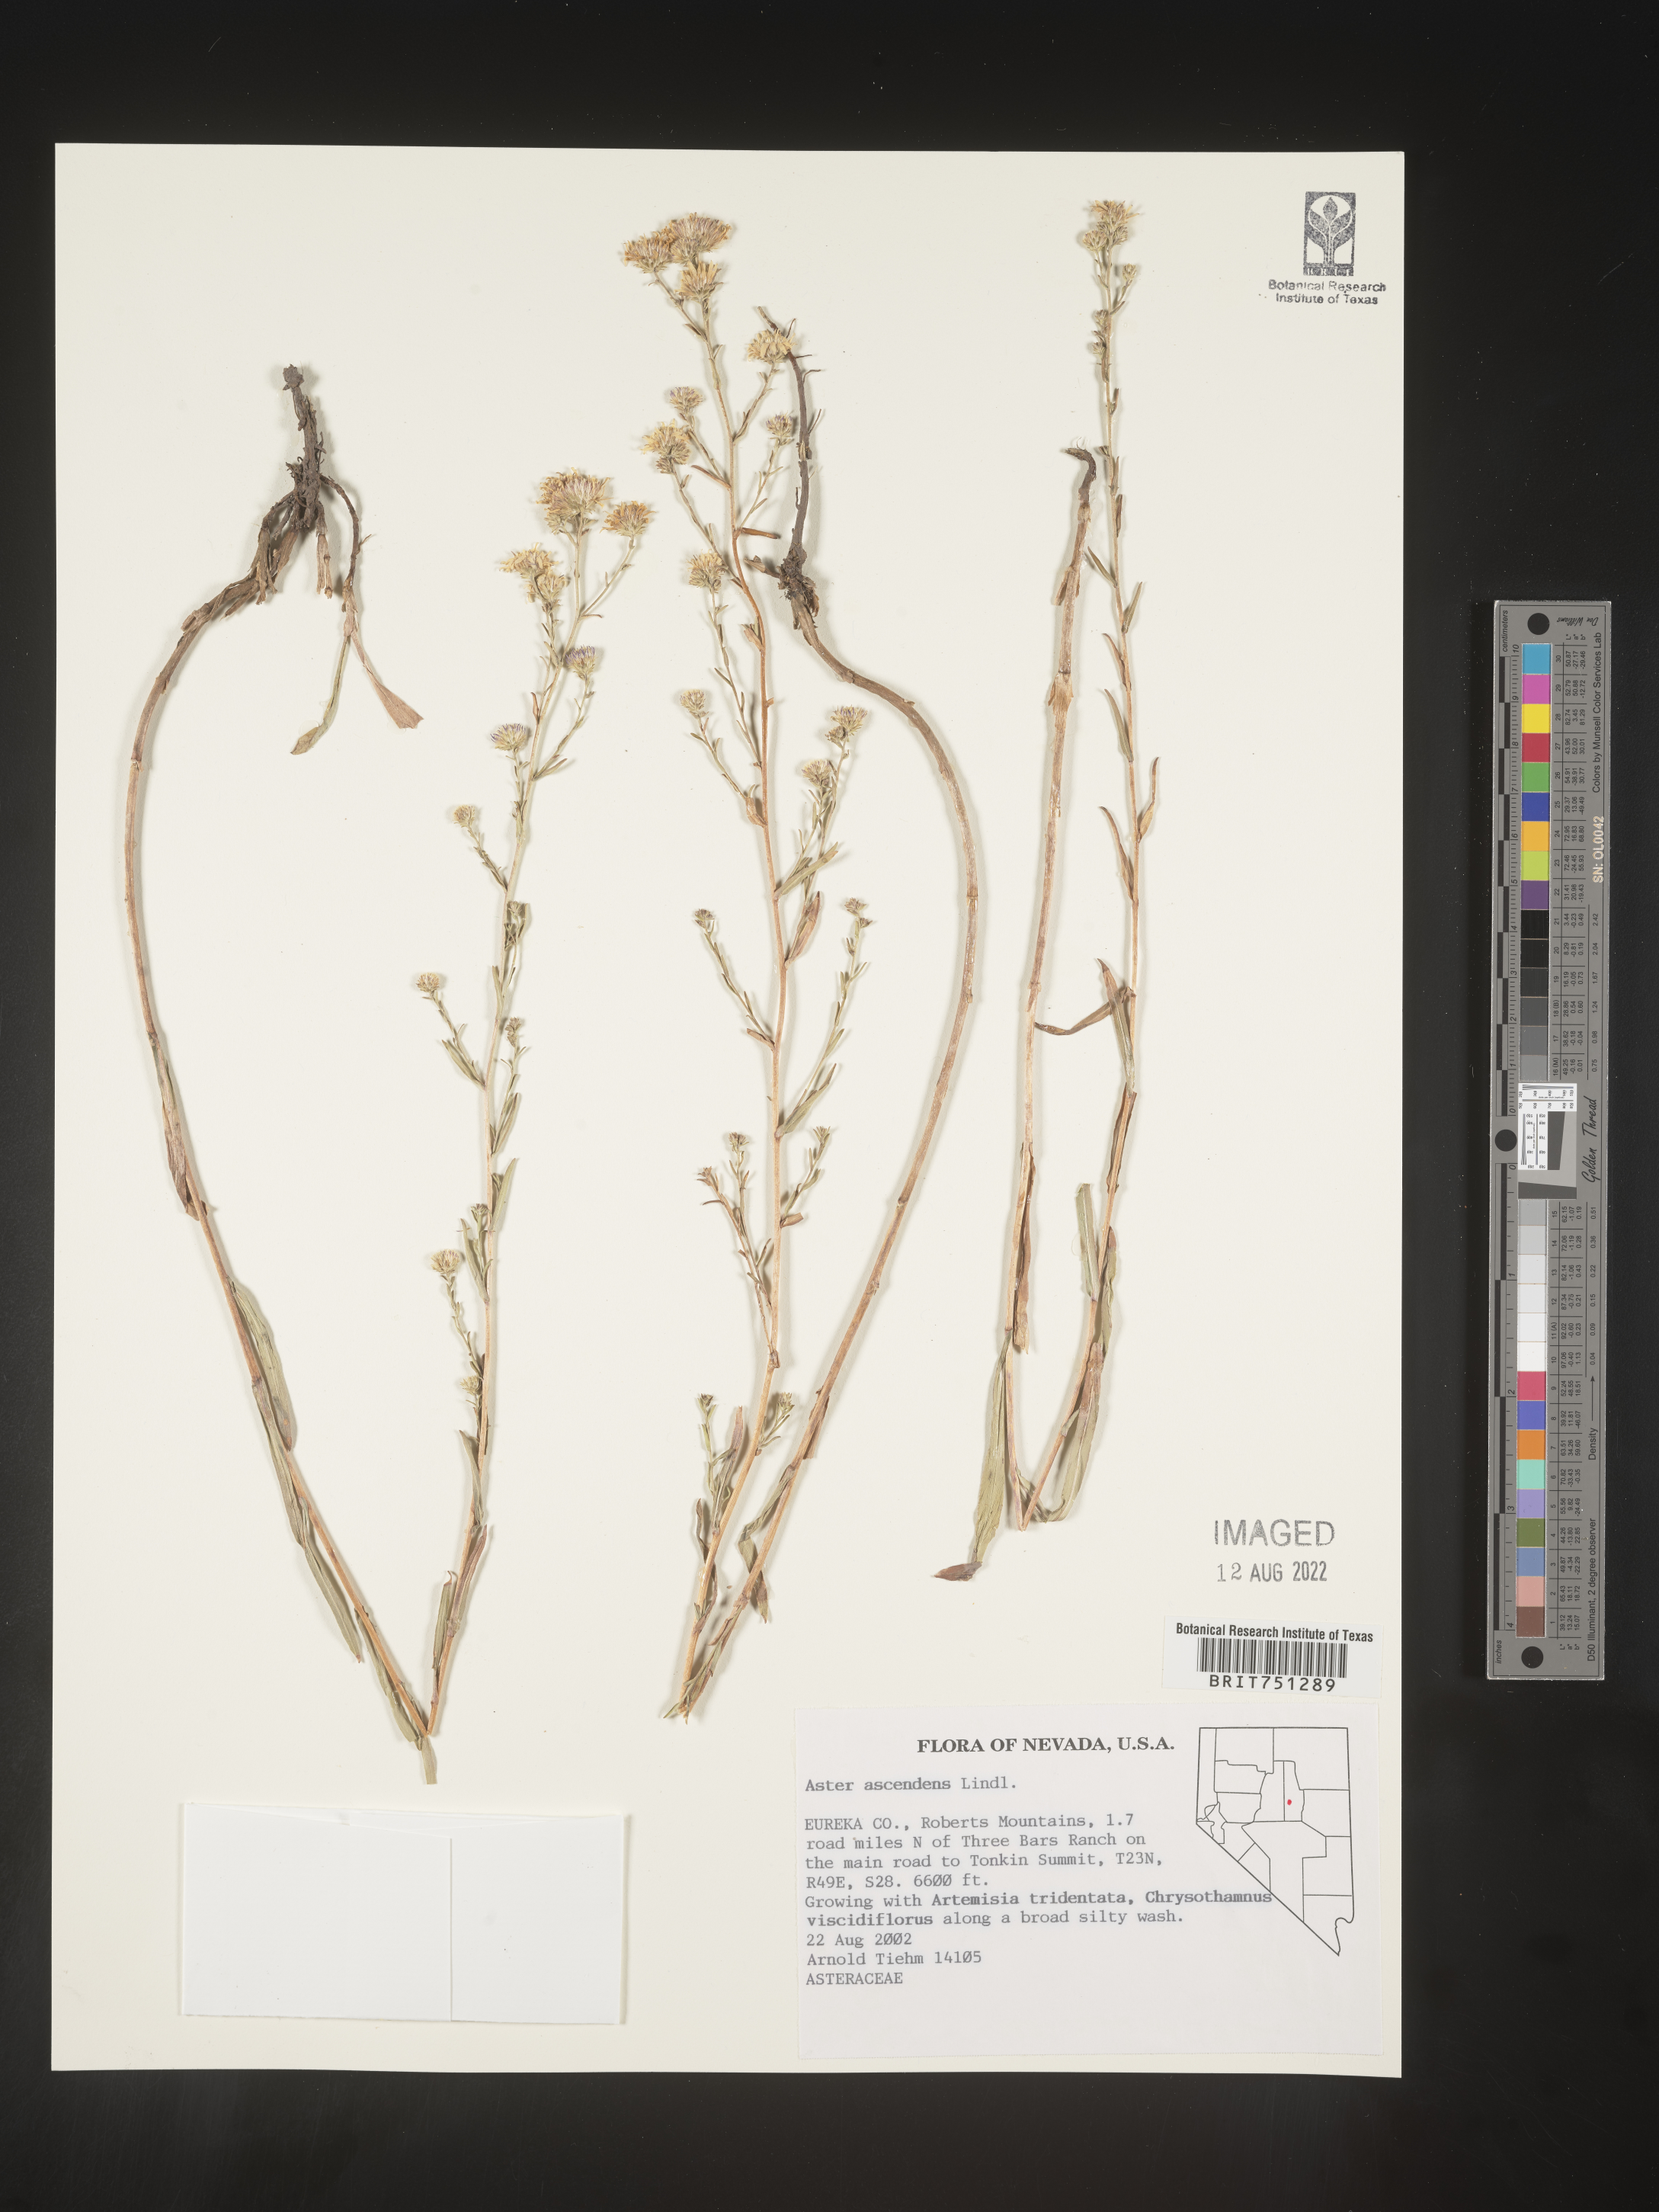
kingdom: Plantae
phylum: Tracheophyta
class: Magnoliopsida
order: Asterales
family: Asteraceae
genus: Symphyotrichum
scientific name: Symphyotrichum ascendens
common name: Intermountain aster
